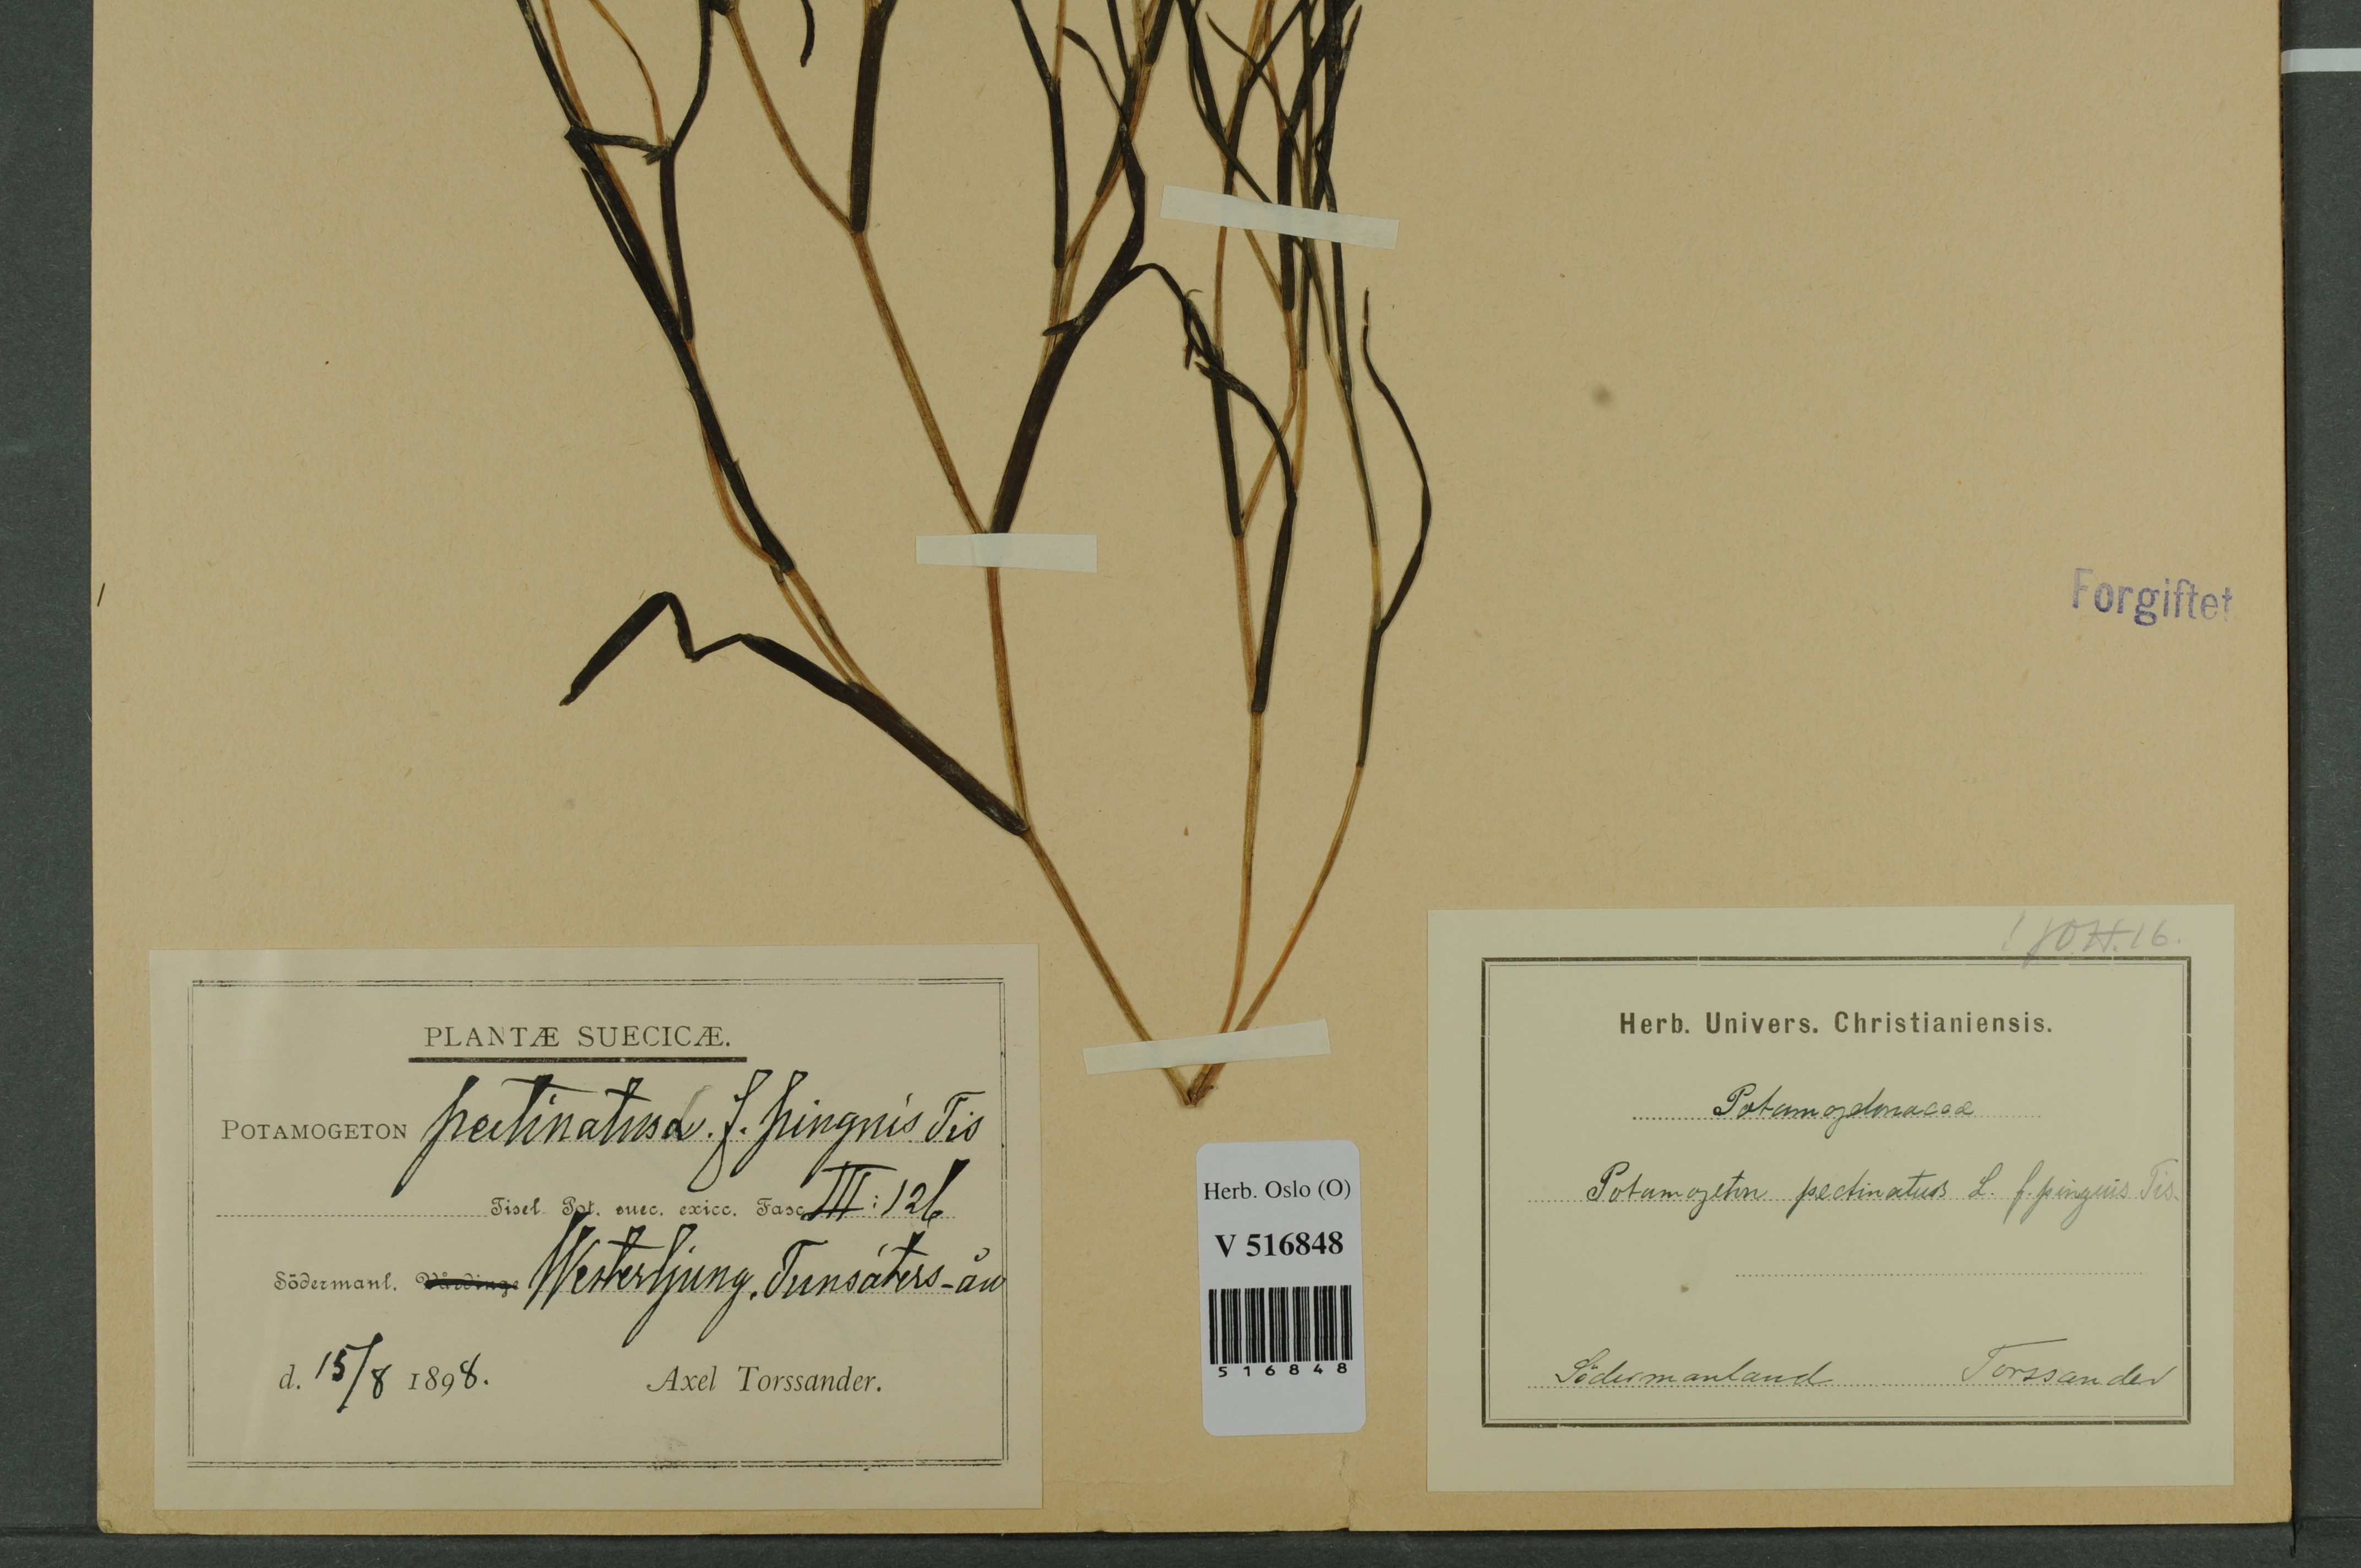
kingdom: Plantae
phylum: Tracheophyta
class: Liliopsida
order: Alismatales
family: Potamogetonaceae
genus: Stuckenia
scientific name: Stuckenia pectinata
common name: Sago pondweed
